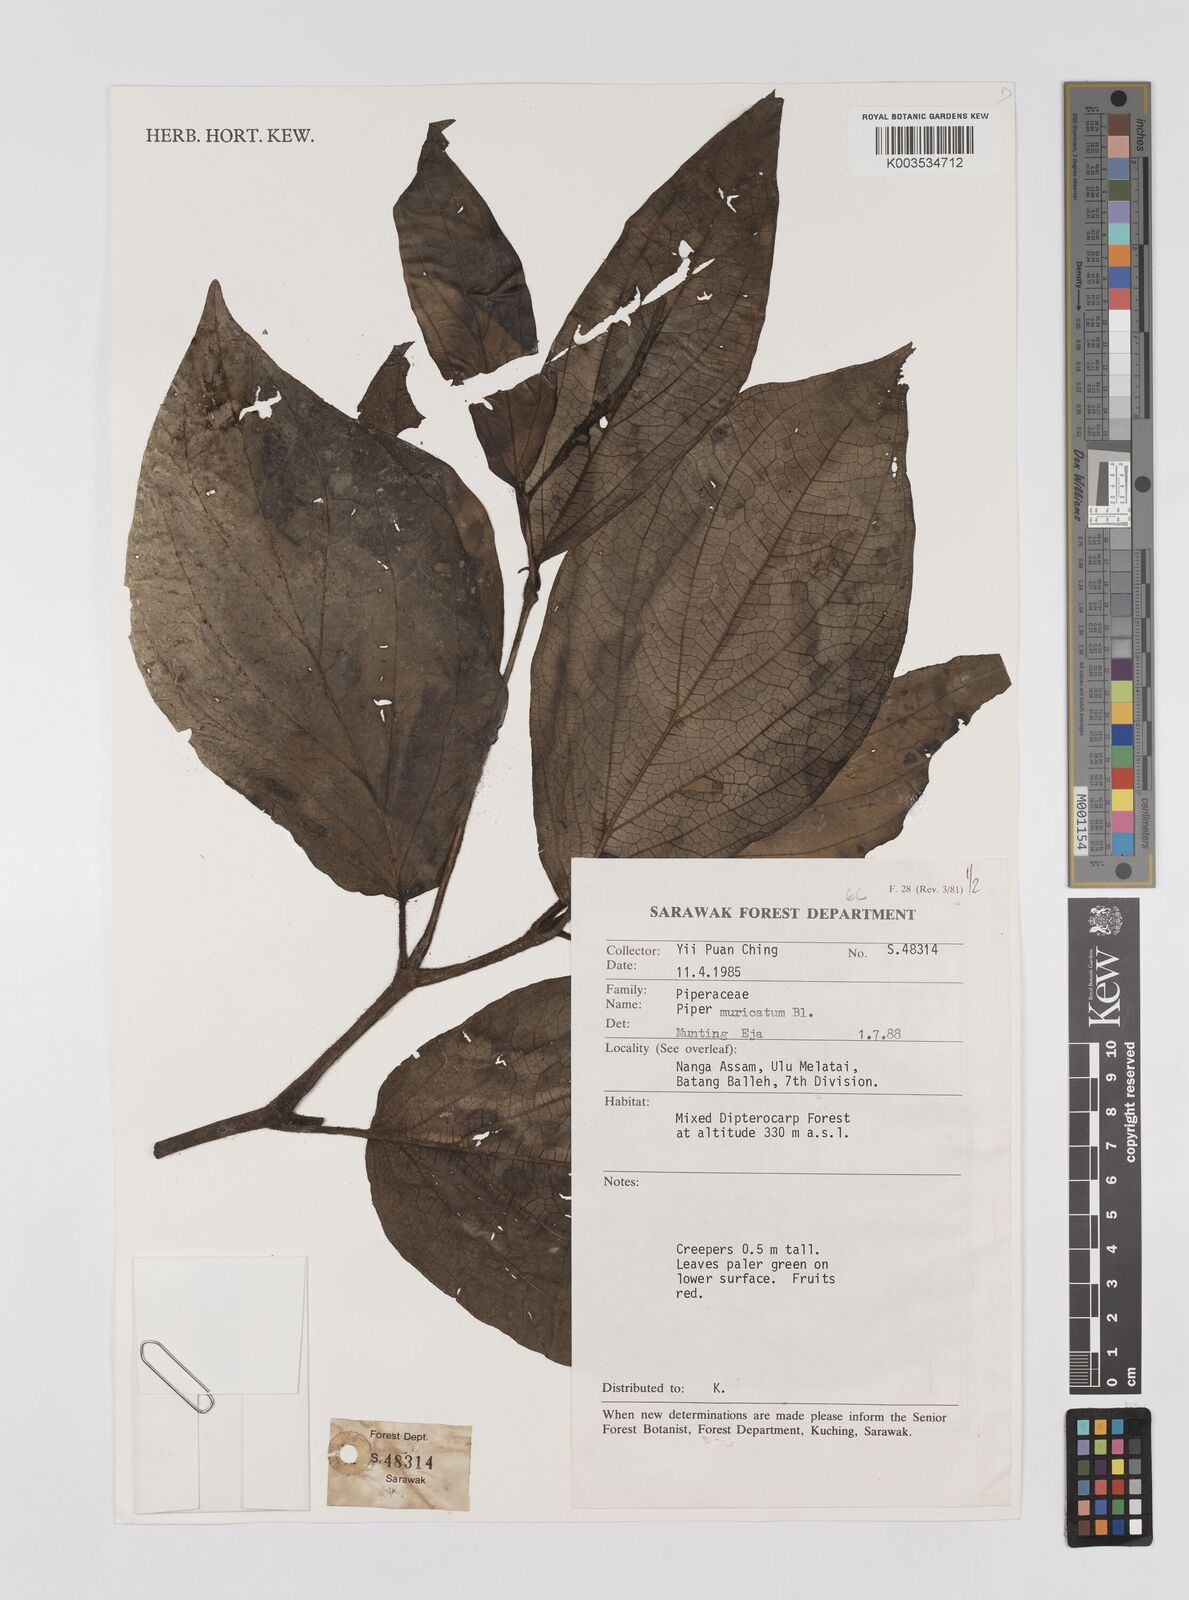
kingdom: Plantae
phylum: Tracheophyta
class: Magnoliopsida
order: Piperales
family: Piperaceae
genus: Piper
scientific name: Piper muricatum
